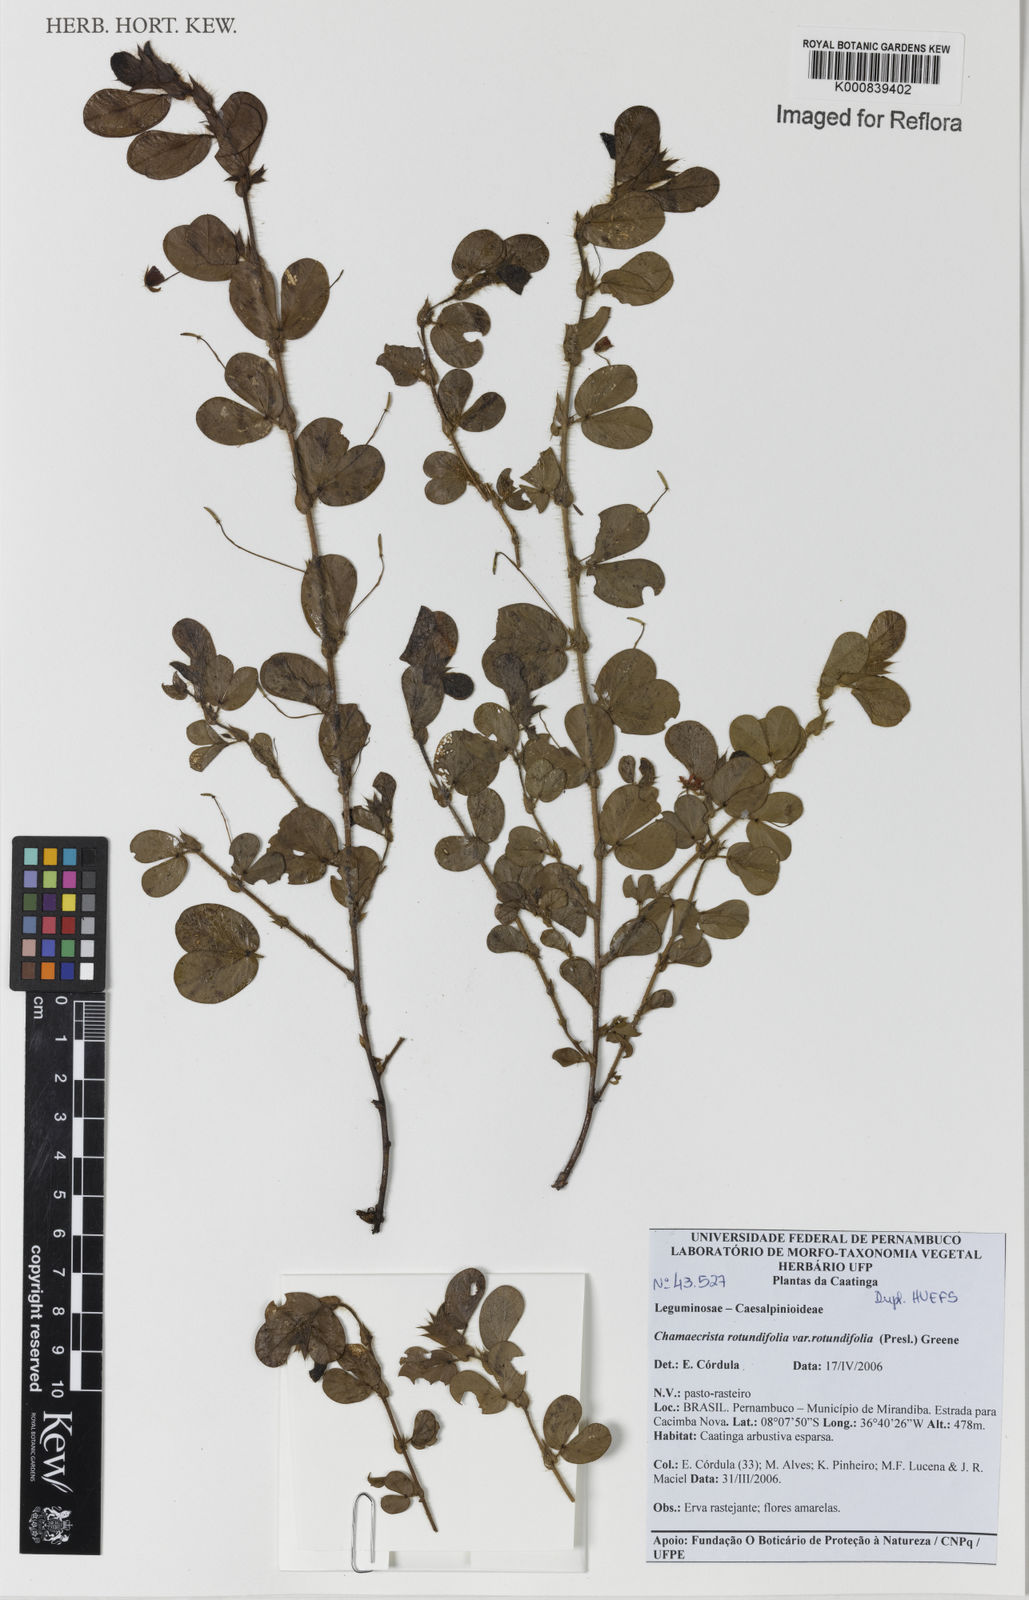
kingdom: Plantae
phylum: Tracheophyta
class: Magnoliopsida
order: Fabales
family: Fabaceae
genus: Chamaecrista
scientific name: Chamaecrista rotundifolia
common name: Round-leaf cassia
